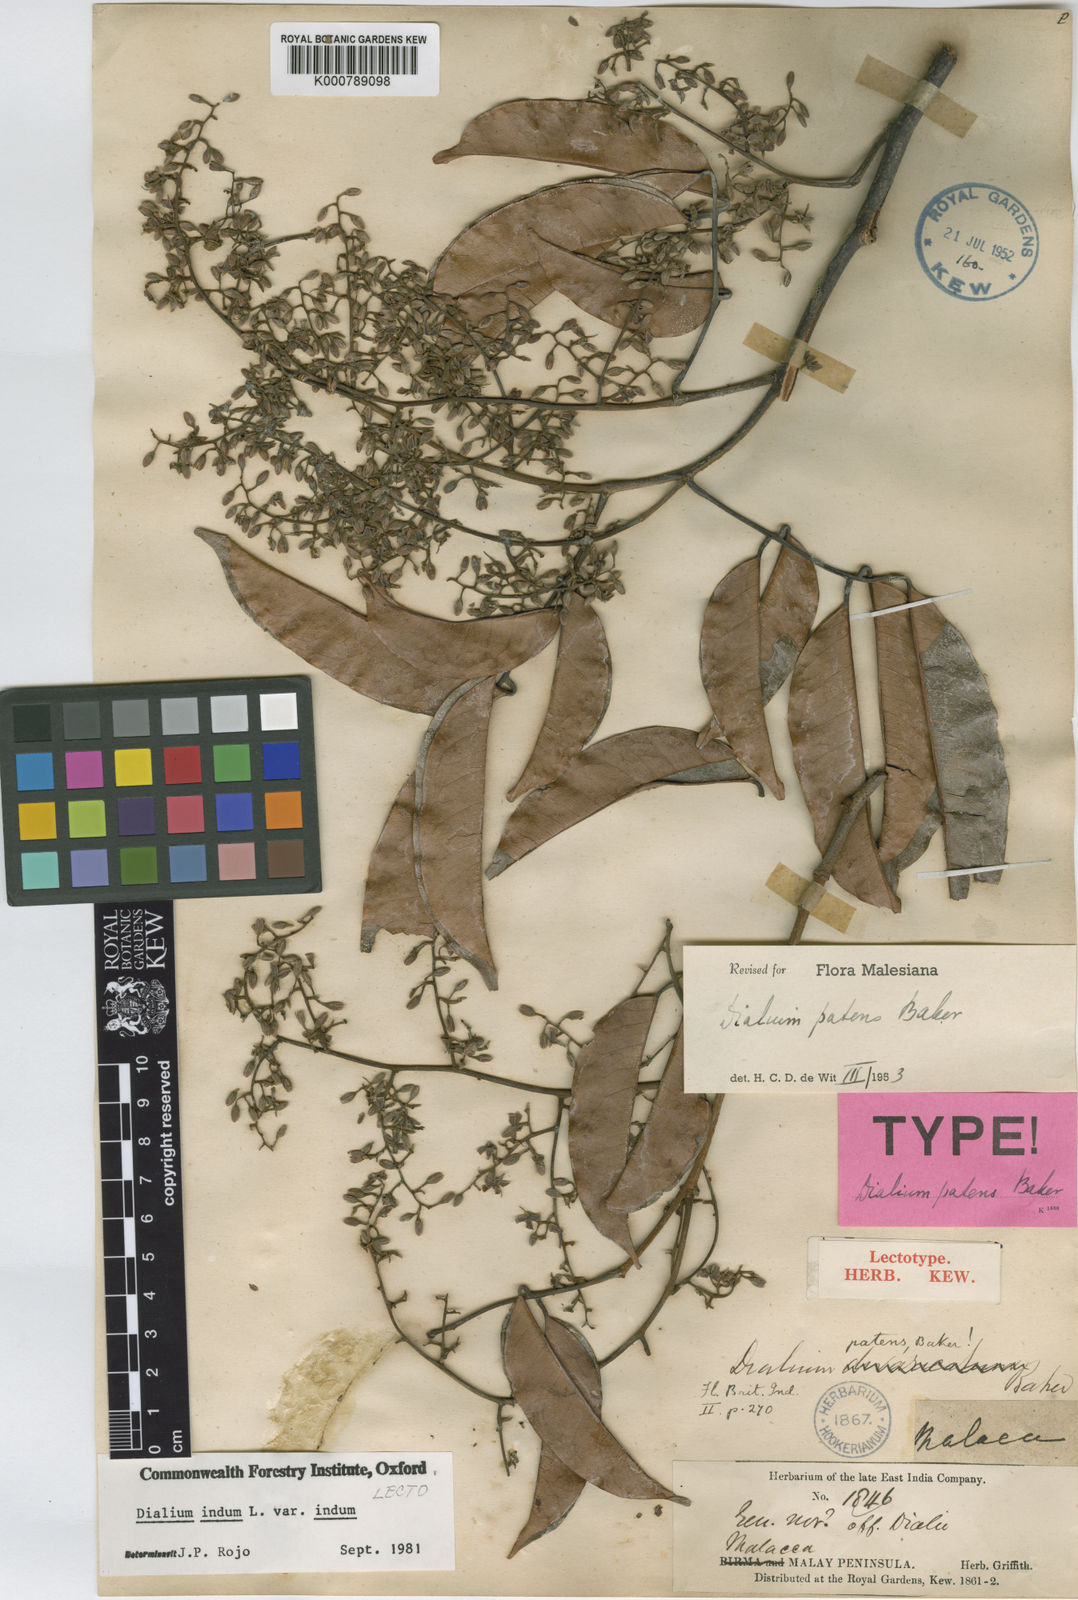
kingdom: Plantae
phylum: Tracheophyta
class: Magnoliopsida
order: Fabales
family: Fabaceae
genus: Dialium
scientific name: Dialium indum
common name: Tamarind-plum
